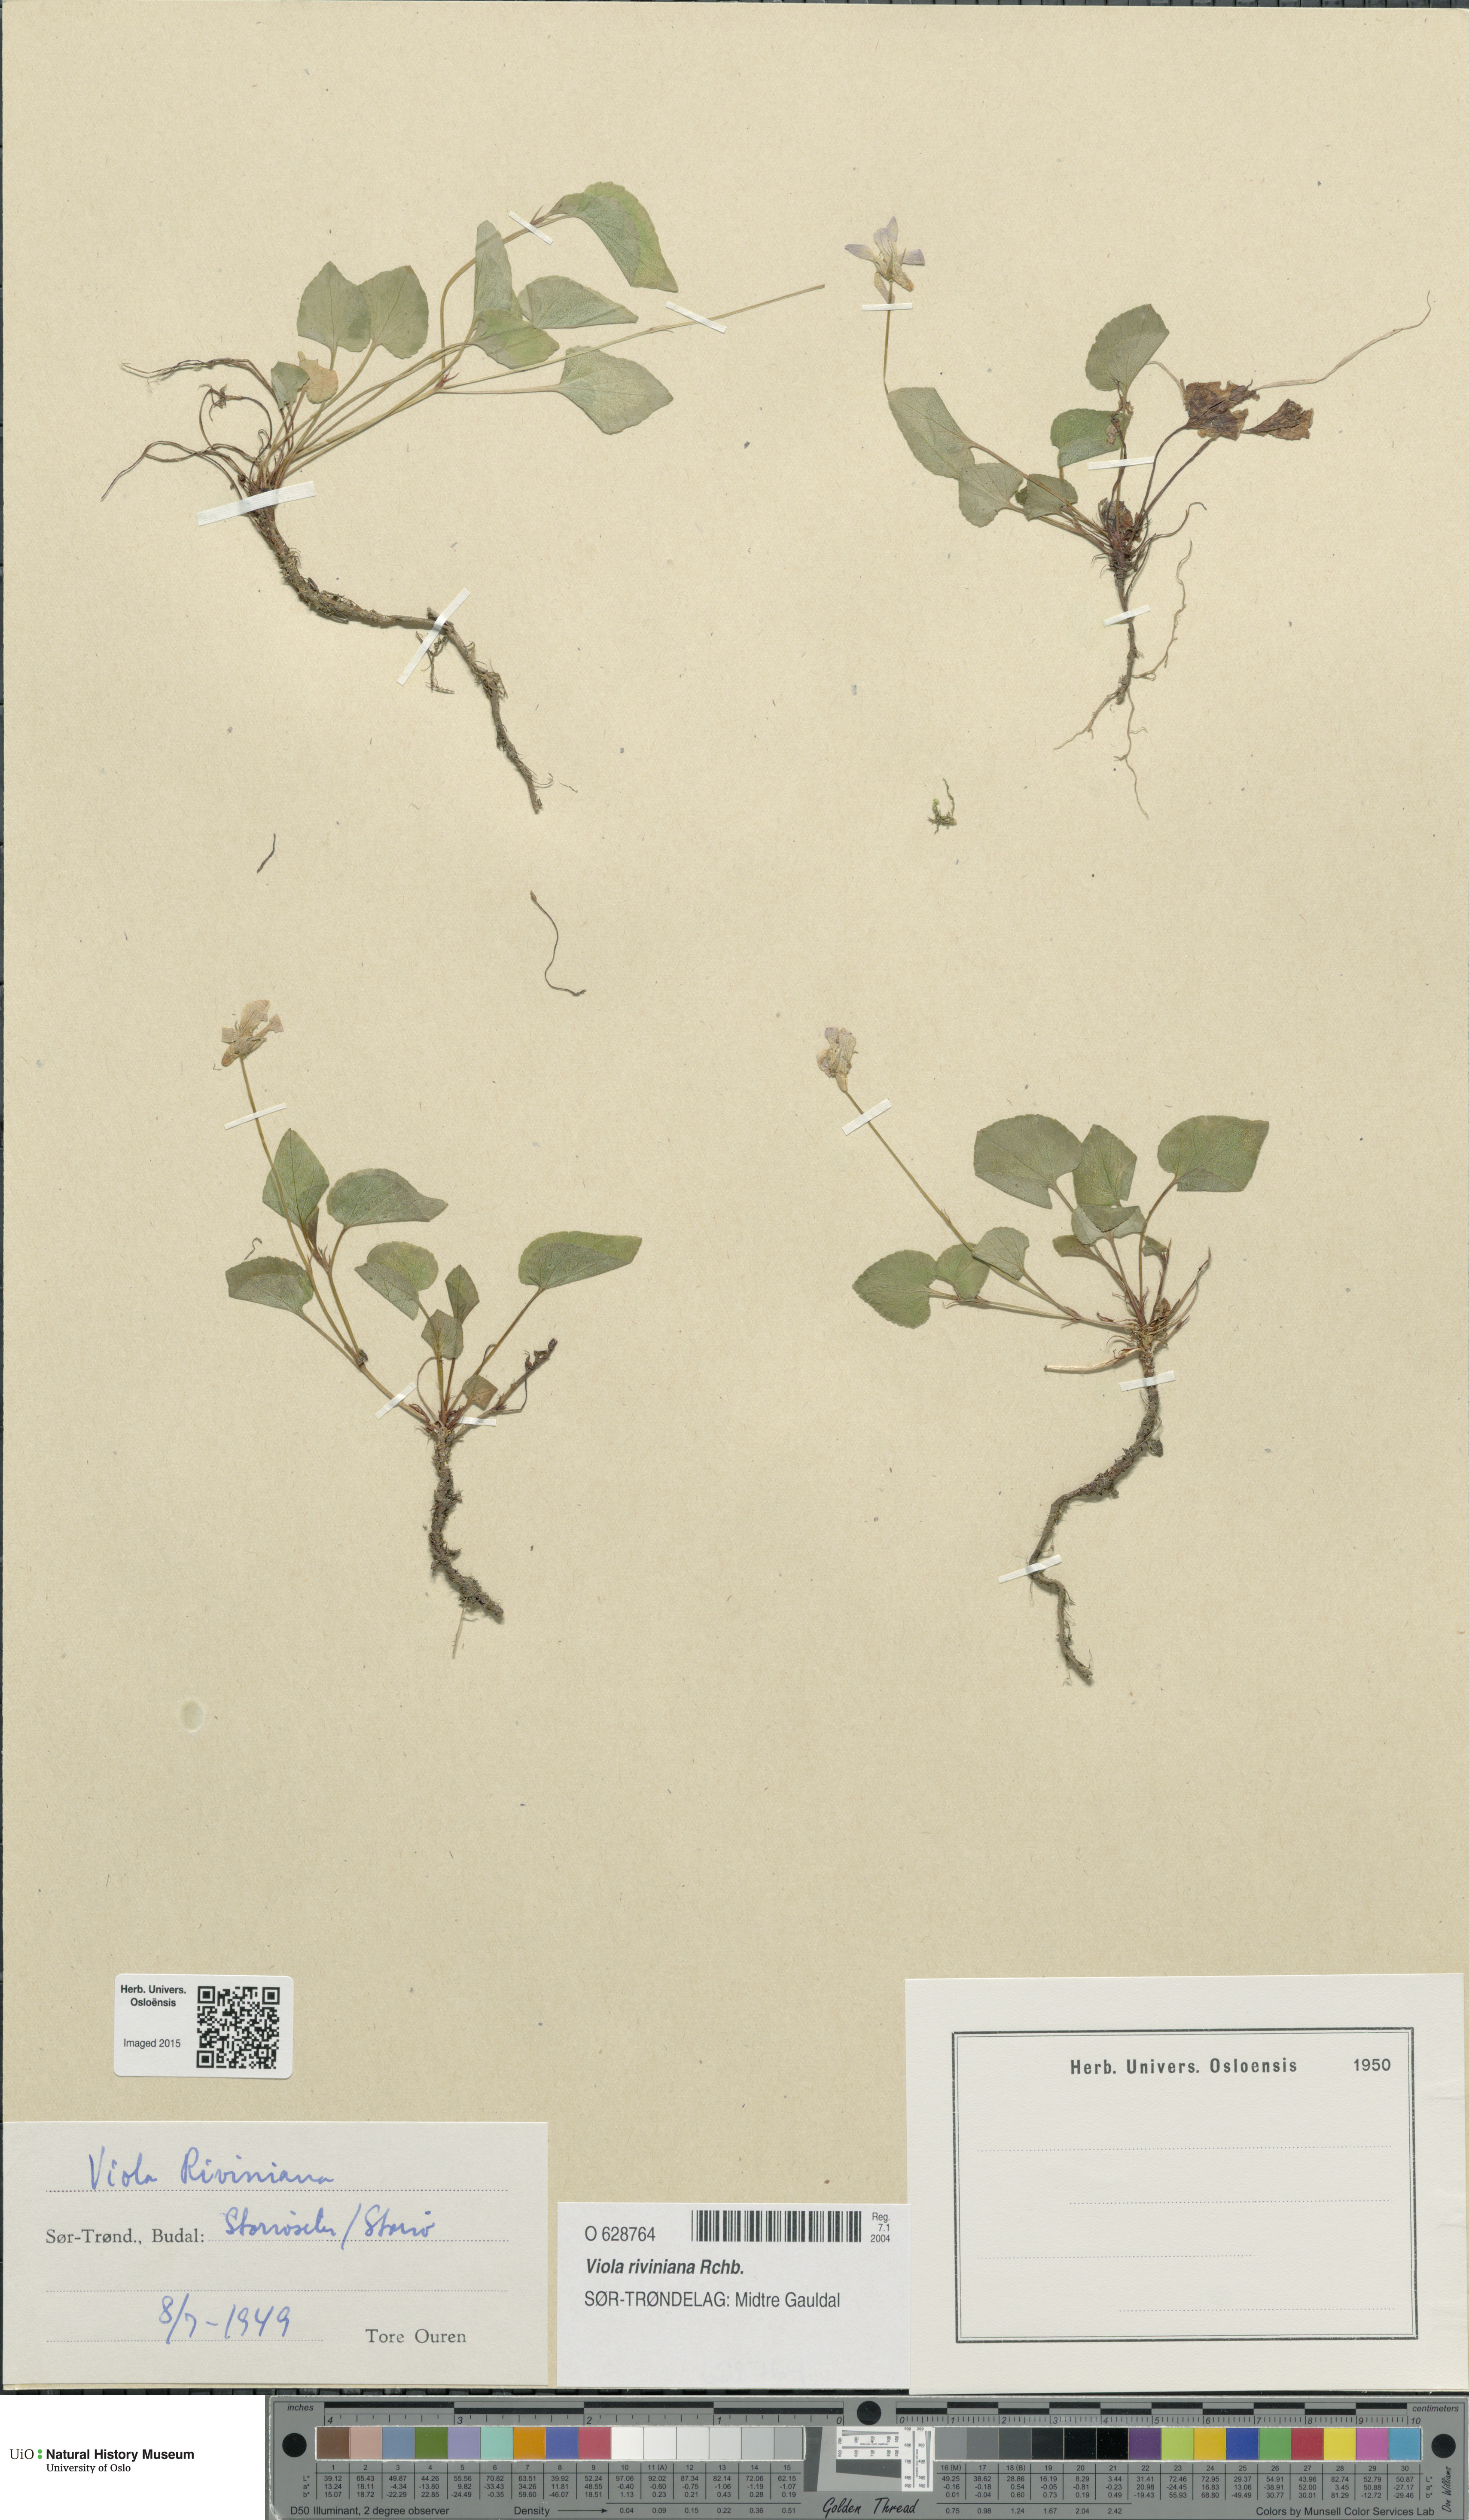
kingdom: Plantae
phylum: Tracheophyta
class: Magnoliopsida
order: Malpighiales
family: Violaceae
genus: Viola
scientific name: Viola riviniana
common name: Common dog-violet
